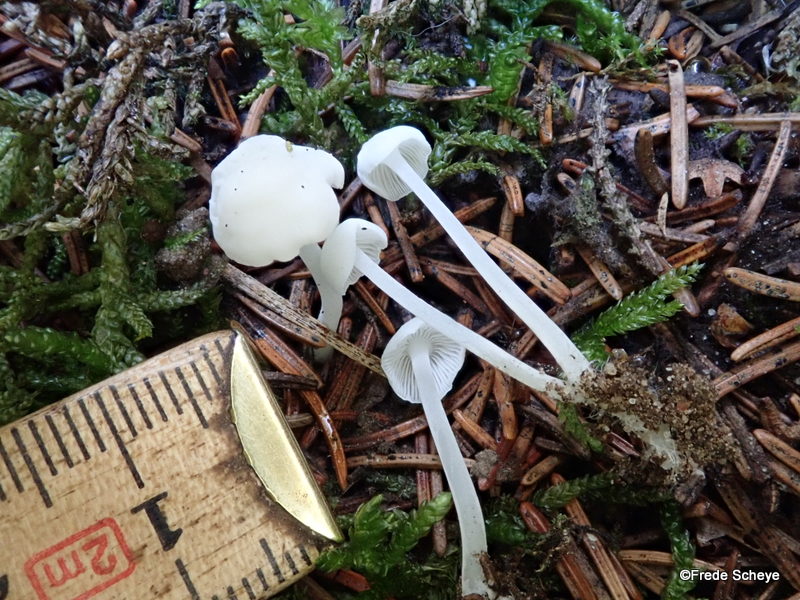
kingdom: Fungi
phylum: Basidiomycota
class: Agaricomycetes
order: Agaricales
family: Mycenaceae
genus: Hemimycena
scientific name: Hemimycena cucullata
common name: tætbladet huesvamp
